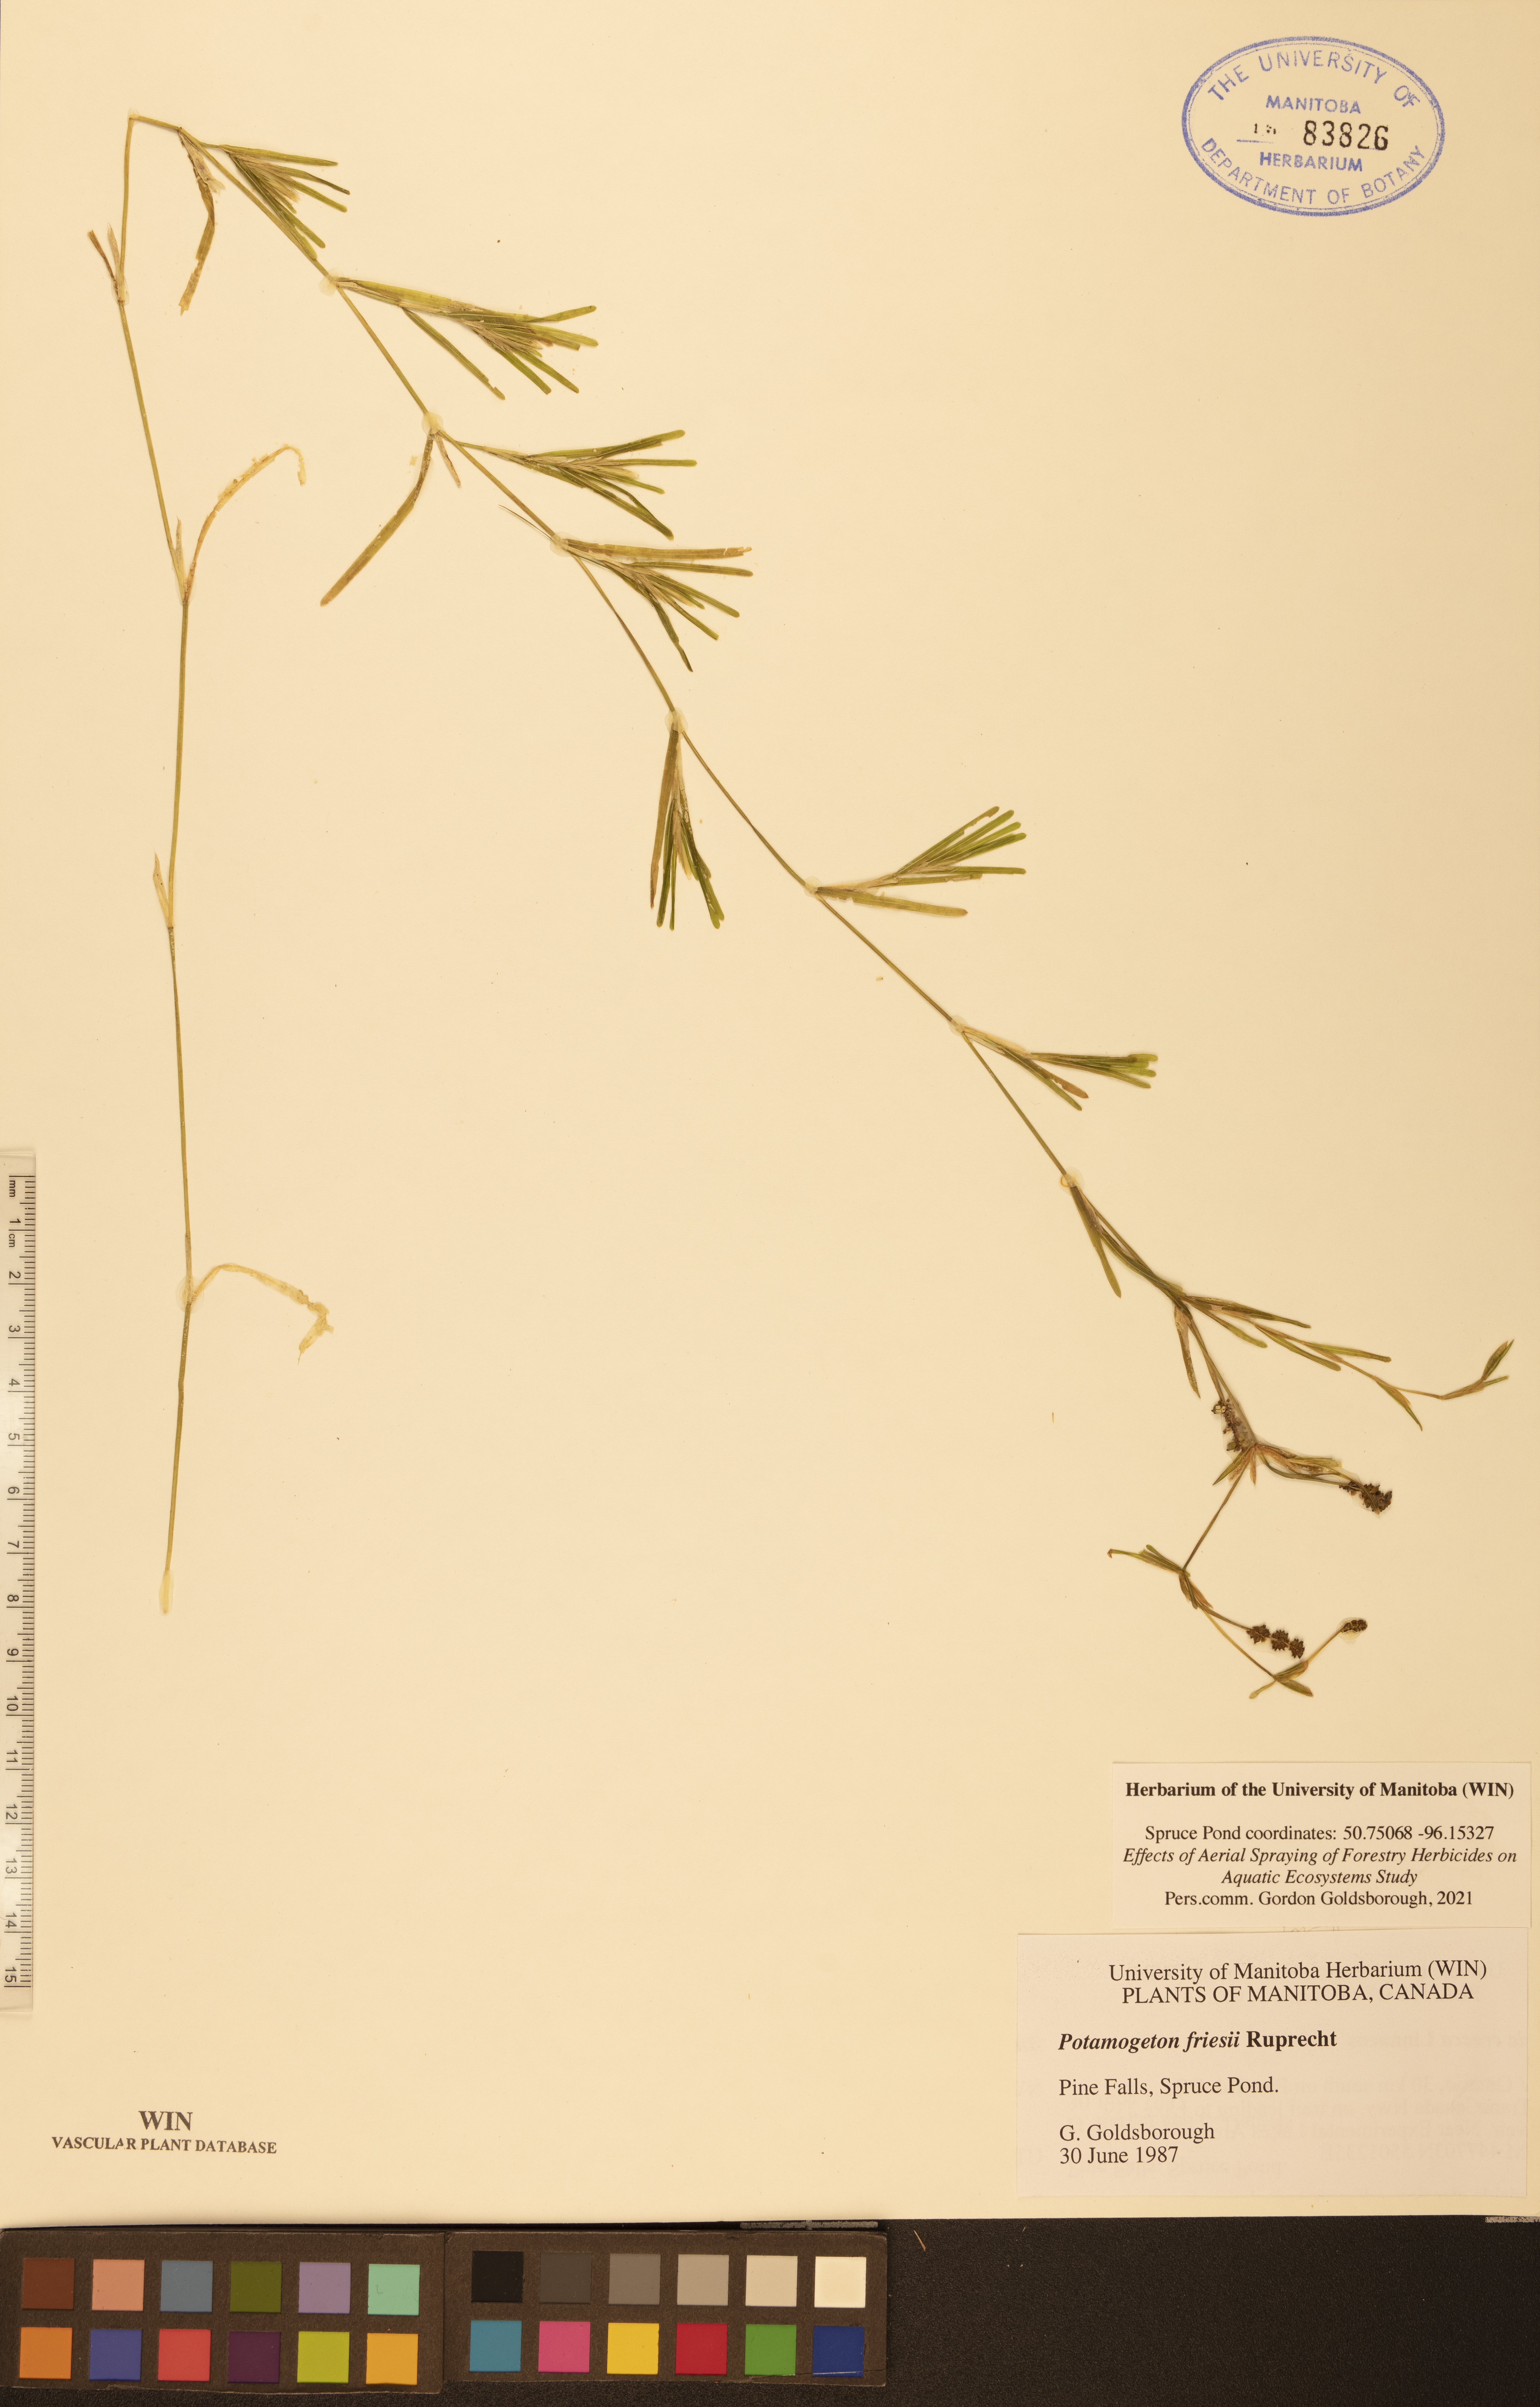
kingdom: Plantae
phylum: Tracheophyta
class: Liliopsida
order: Alismatales
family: Potamogetonaceae
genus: Potamogeton
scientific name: Potamogeton friesii
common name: Flat-stalked pondweed
